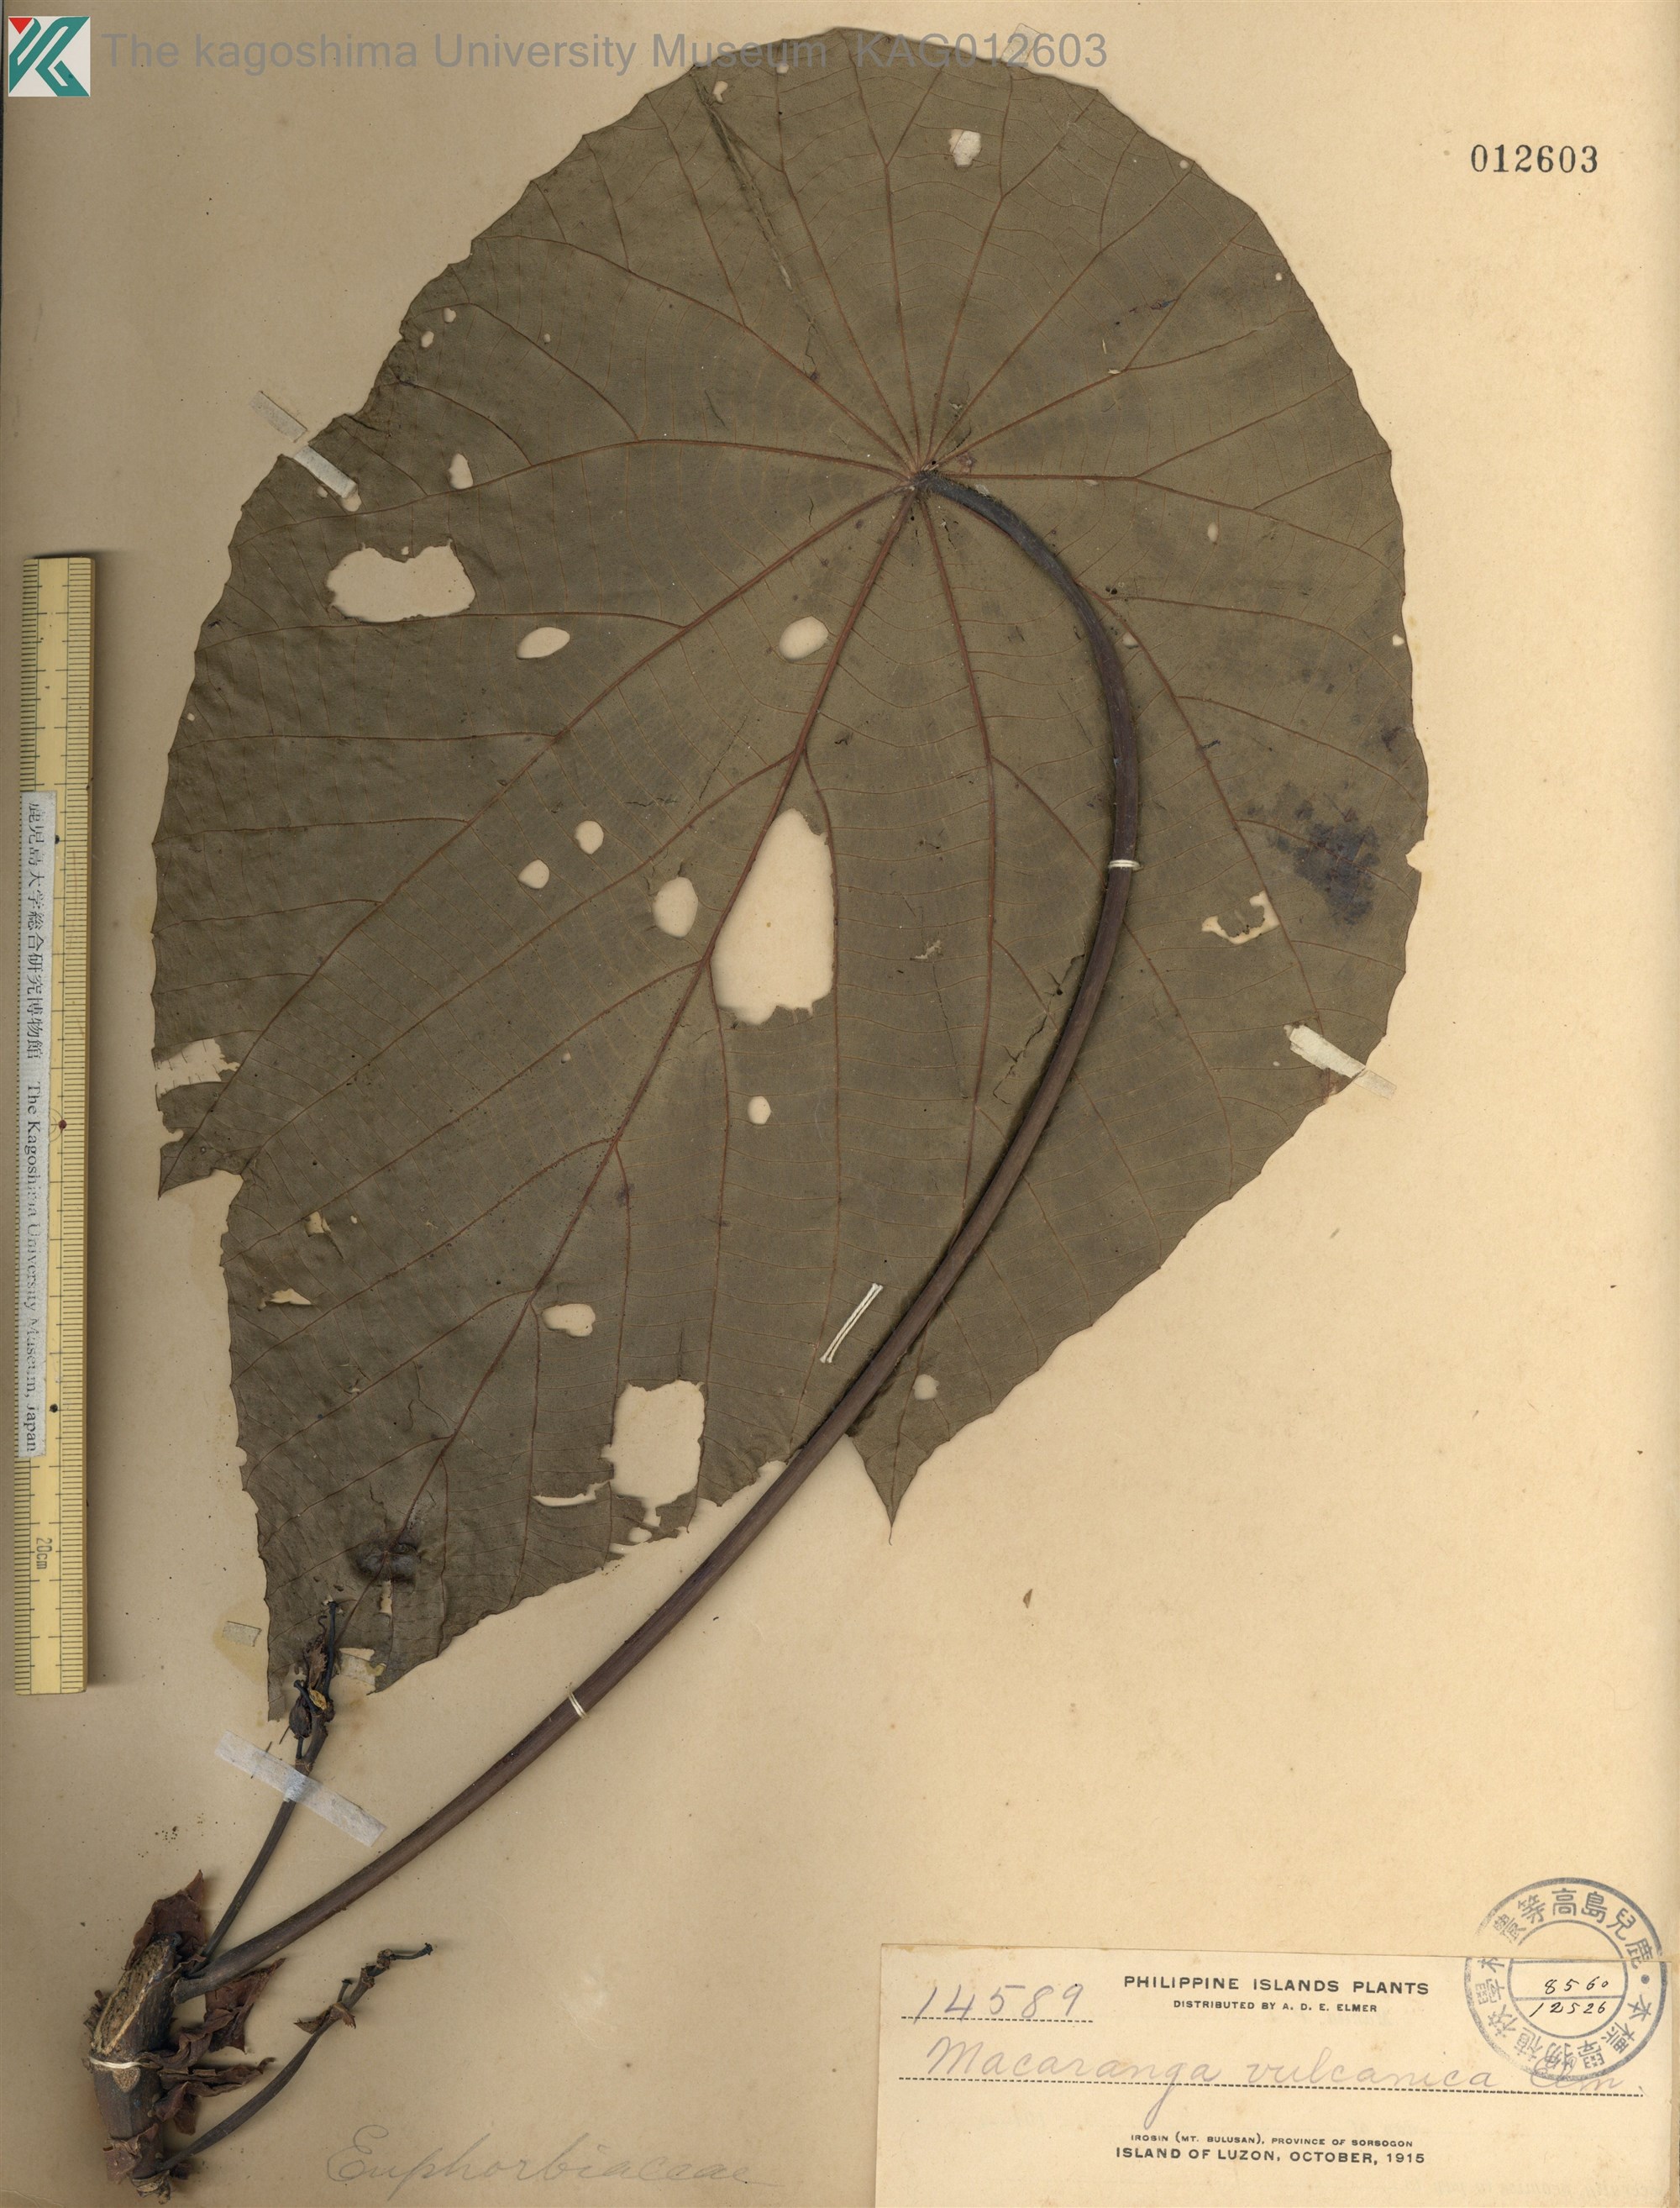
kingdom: Plantae
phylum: Tracheophyta
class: Magnoliopsida
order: Malpighiales
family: Euphorbiaceae
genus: Macaranga
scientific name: Macaranga tanarius
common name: Parasol leaf tree
